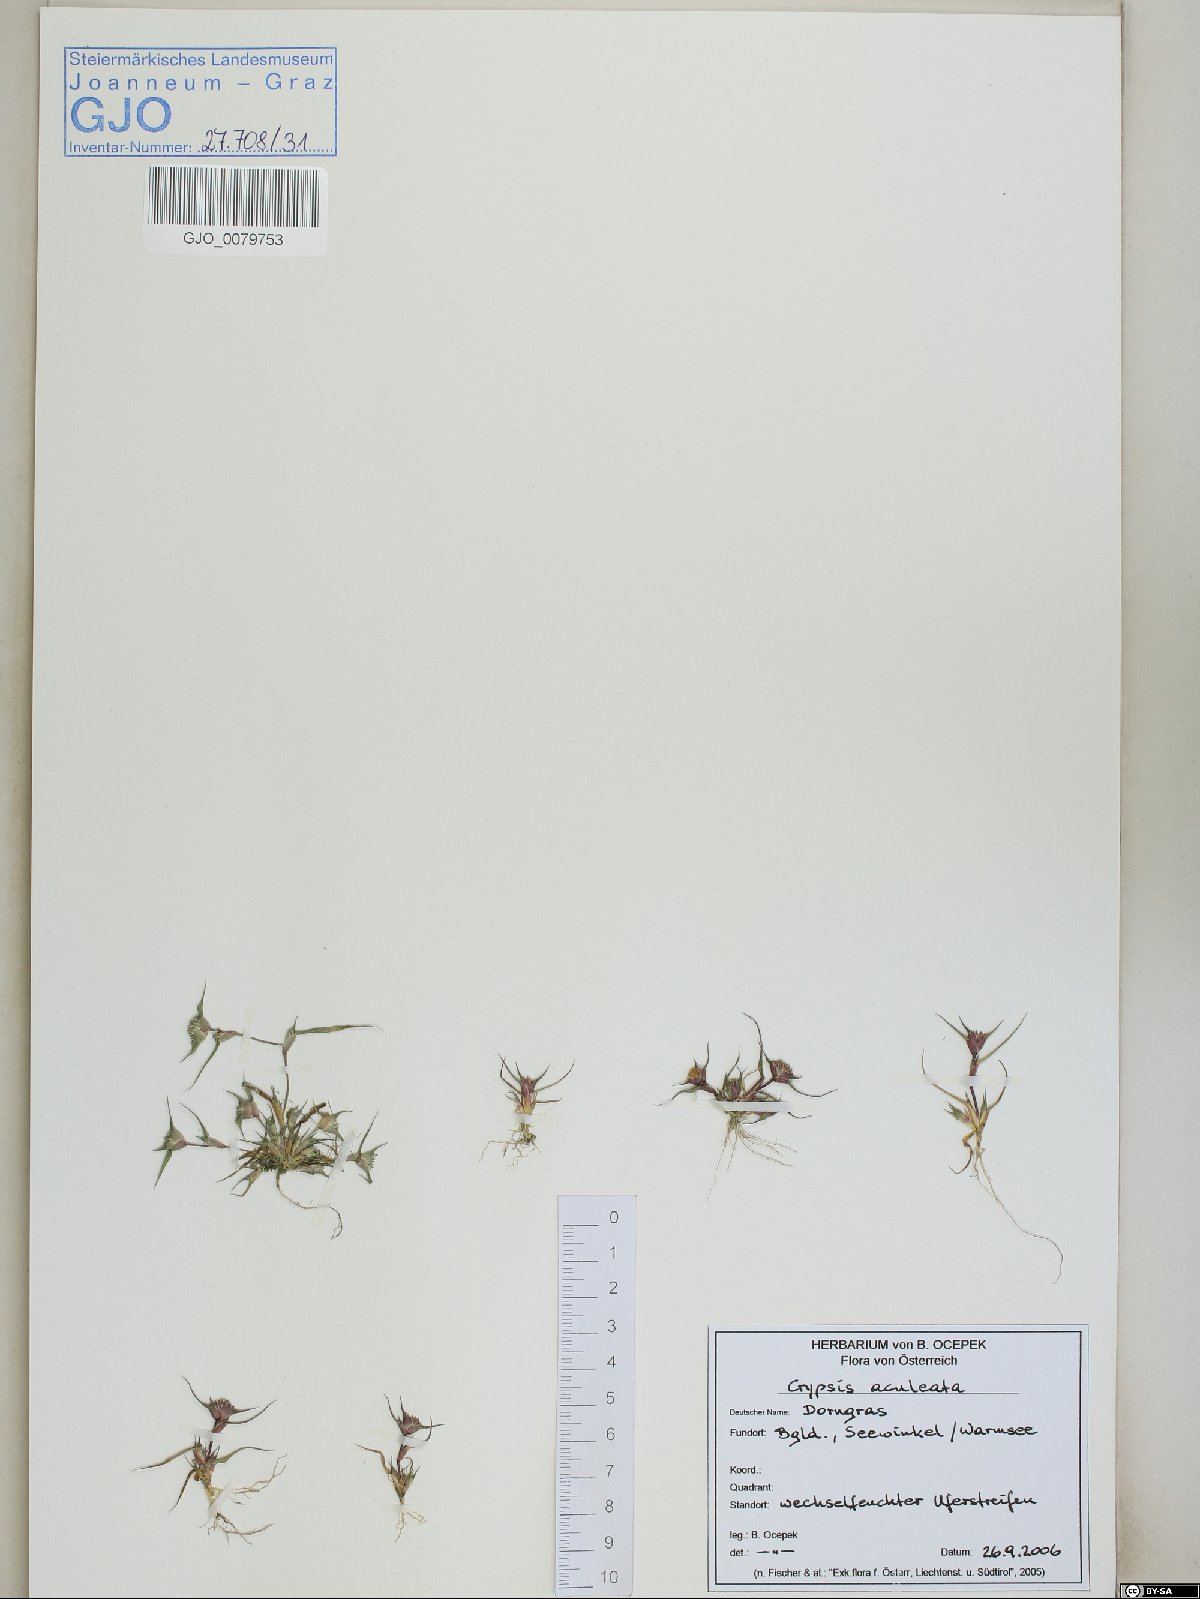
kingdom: Plantae
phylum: Tracheophyta
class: Liliopsida
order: Poales
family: Poaceae
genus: Sporobolus
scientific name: Sporobolus aculeatus
